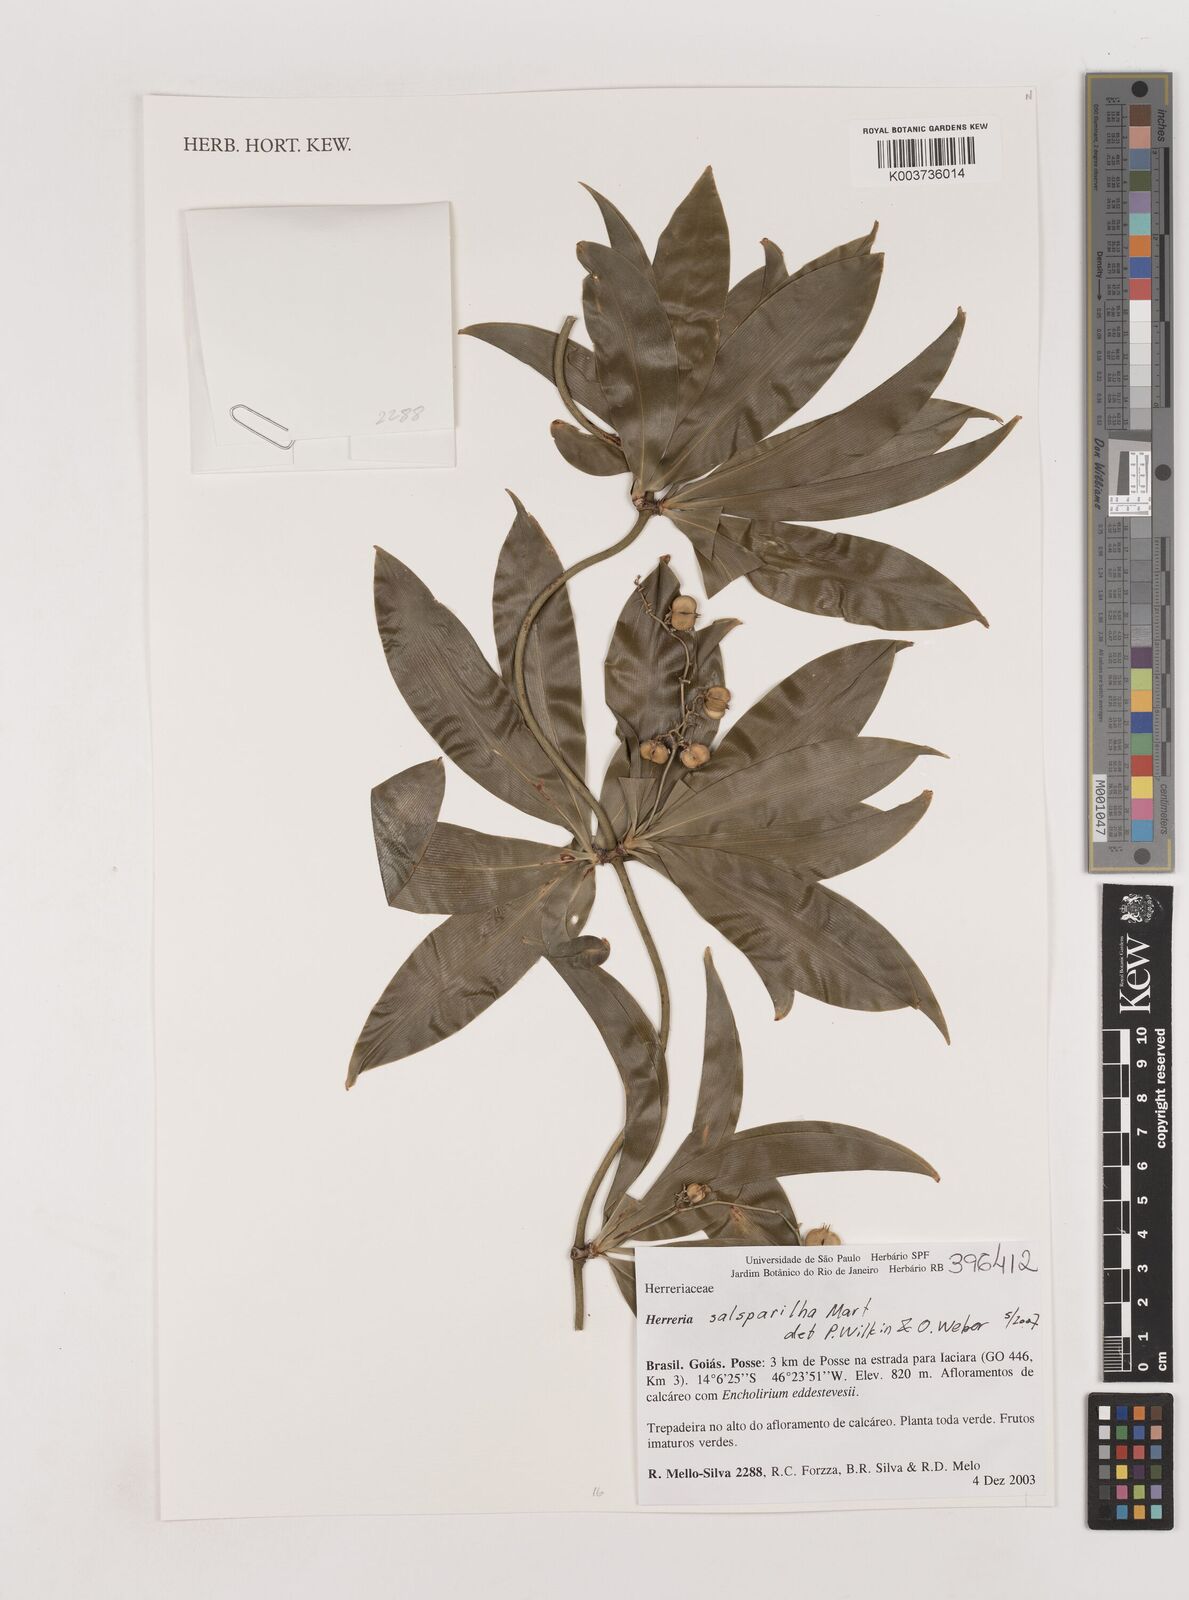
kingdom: Plantae
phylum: Tracheophyta
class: Liliopsida
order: Asparagales
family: Asparagaceae
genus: Herreria
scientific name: Herreria salsaparilha
